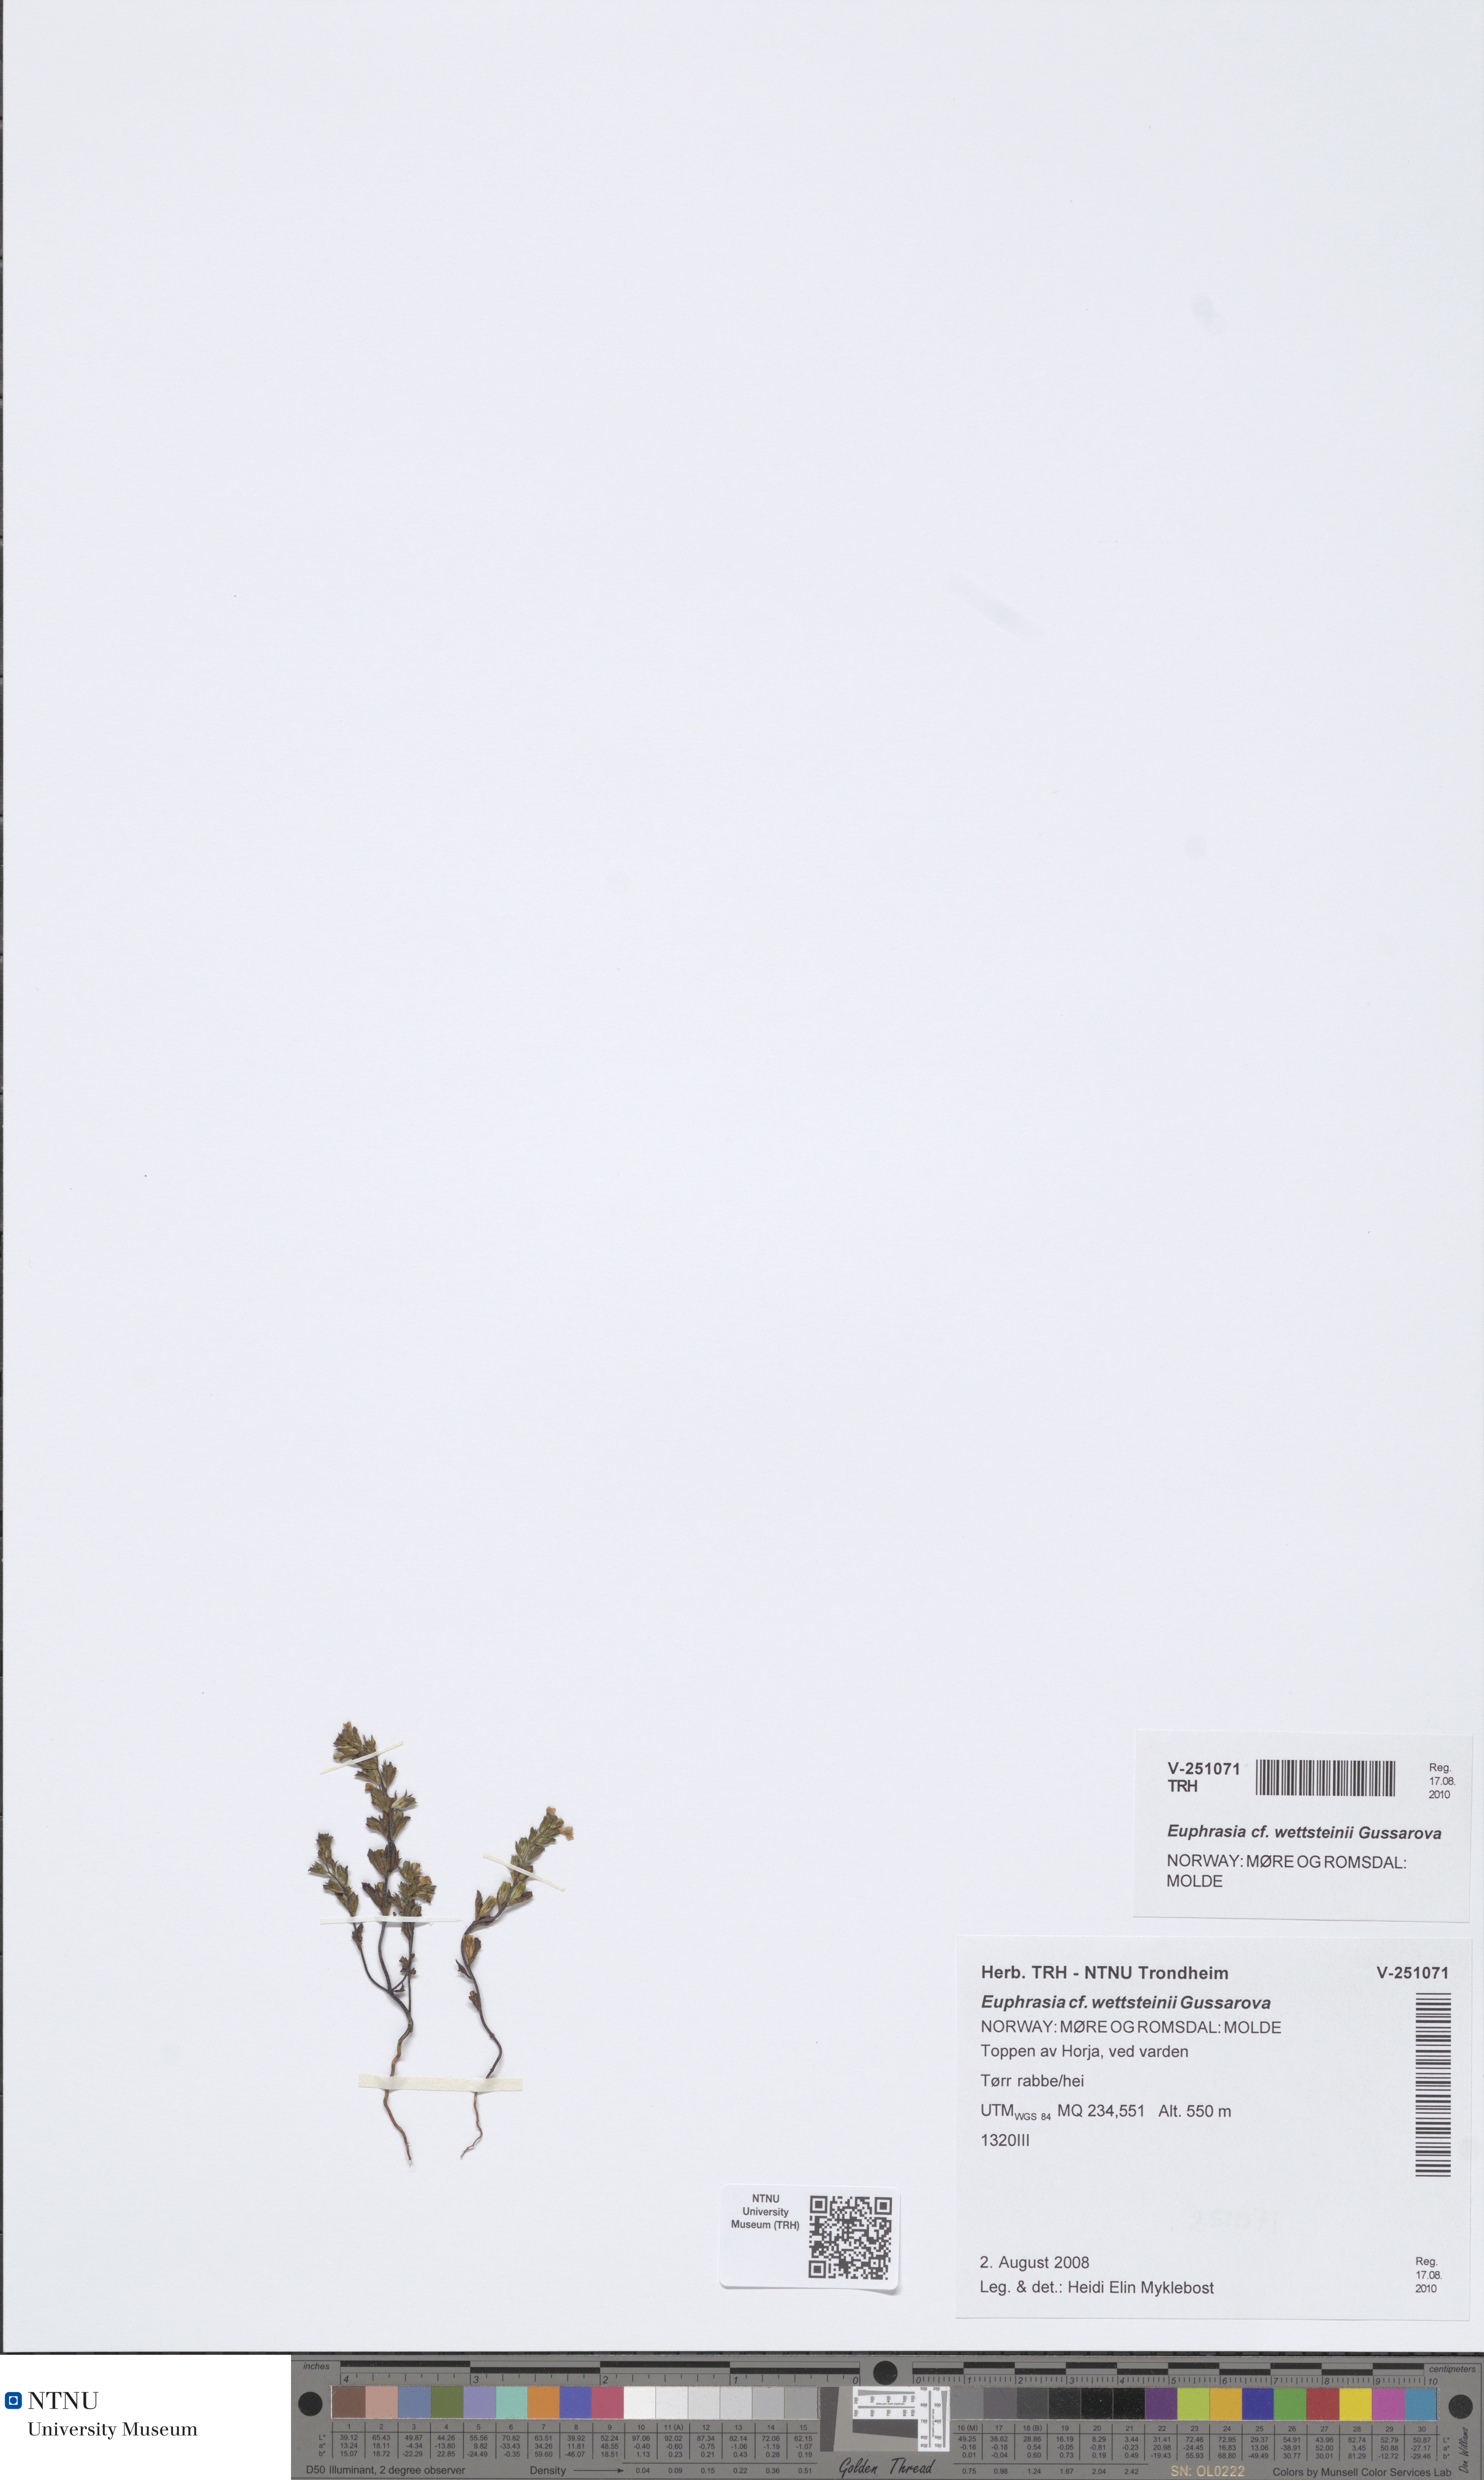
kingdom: Plantae
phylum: Tracheophyta
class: Magnoliopsida
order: Lamiales
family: Orobanchaceae
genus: Euphrasia
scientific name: Euphrasia wettsteinii
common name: Wettstein's eyebright
